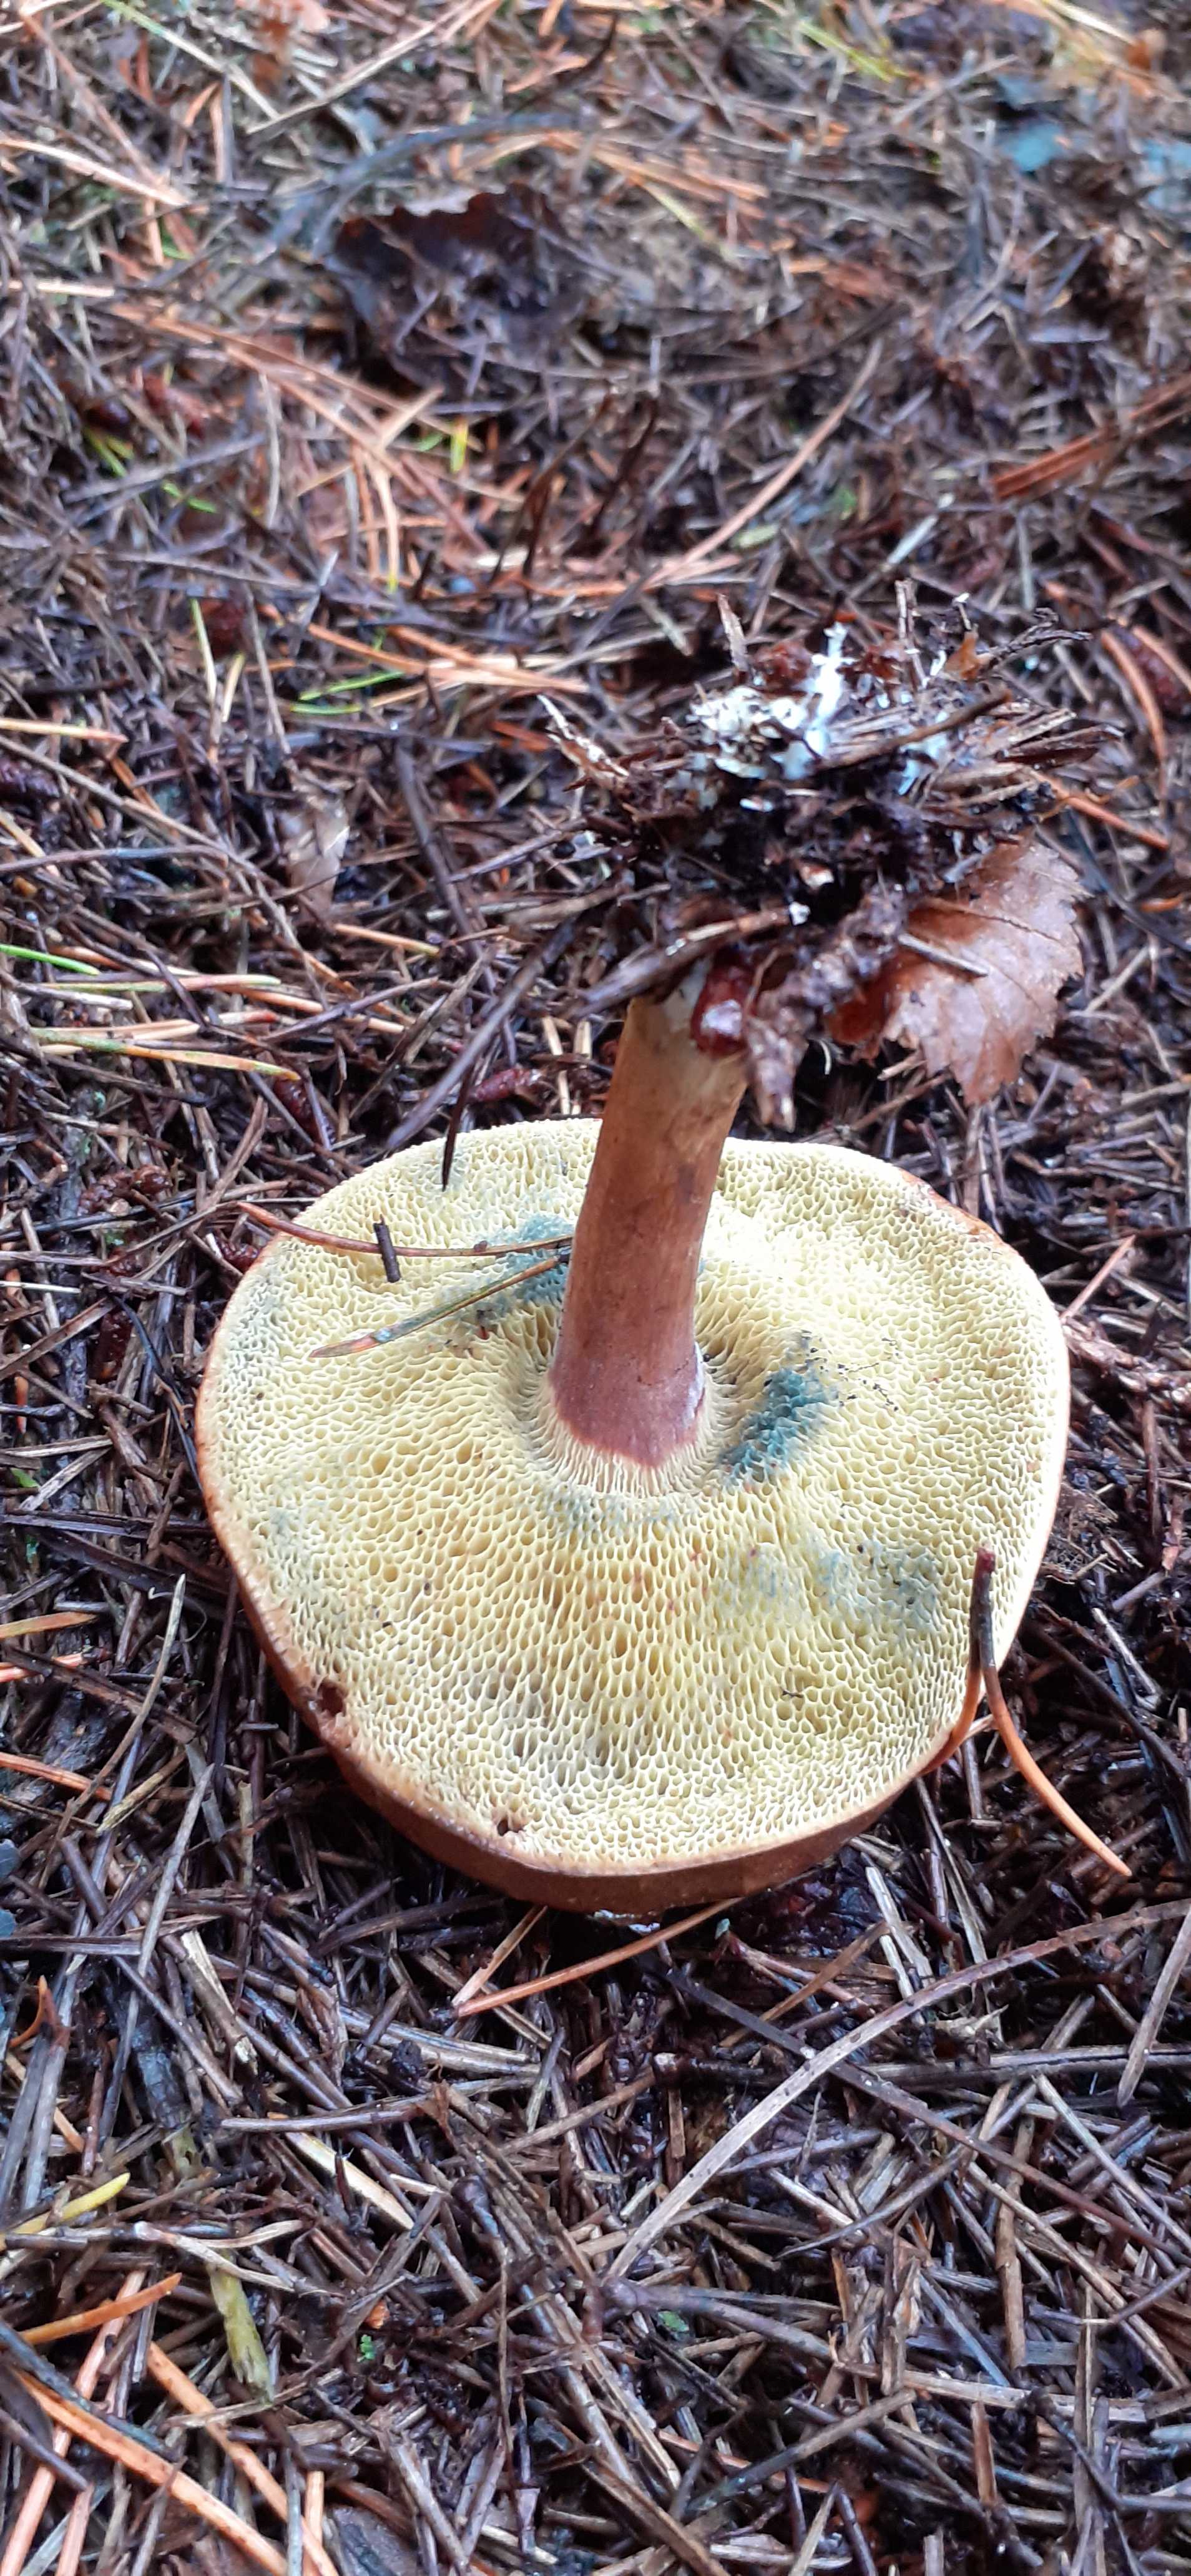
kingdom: Fungi
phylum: Basidiomycota
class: Agaricomycetes
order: Boletales
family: Boletaceae
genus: Imleria
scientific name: Imleria badia
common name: brunstokket rørhat
